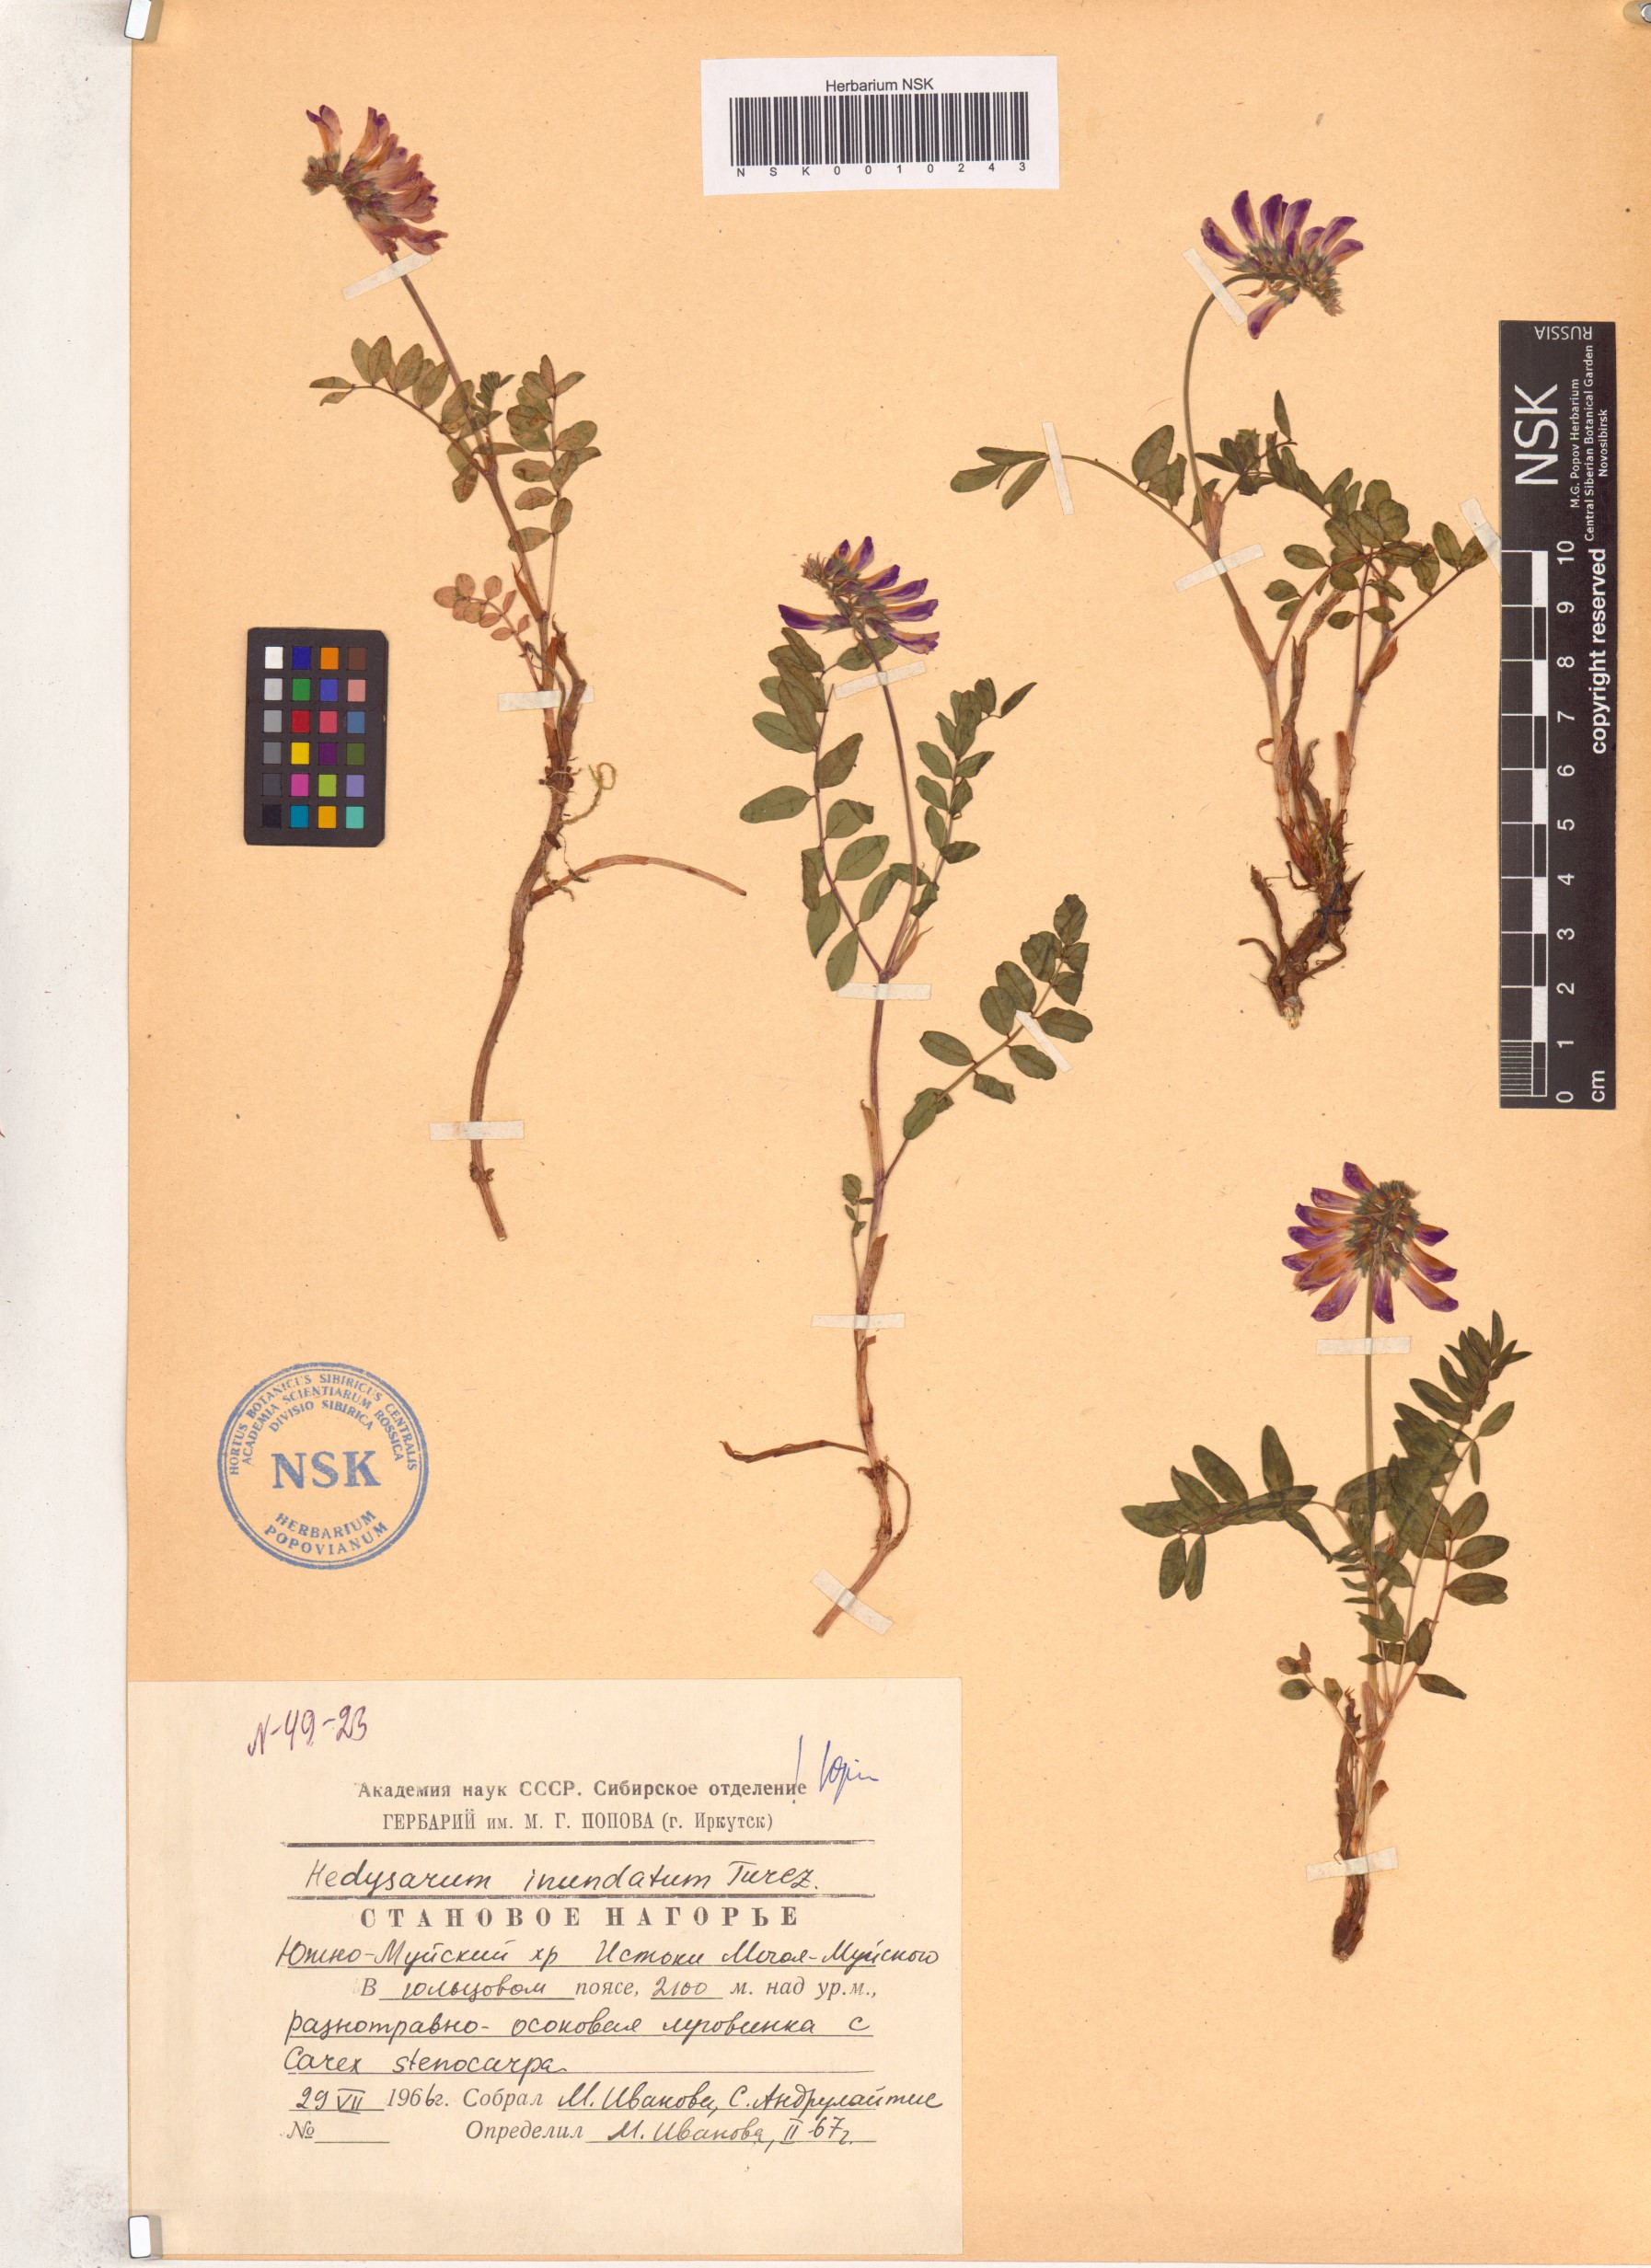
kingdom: Plantae
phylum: Tracheophyta
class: Magnoliopsida
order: Fabales
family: Fabaceae
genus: Hedysarum
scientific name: Hedysarum inundatum
